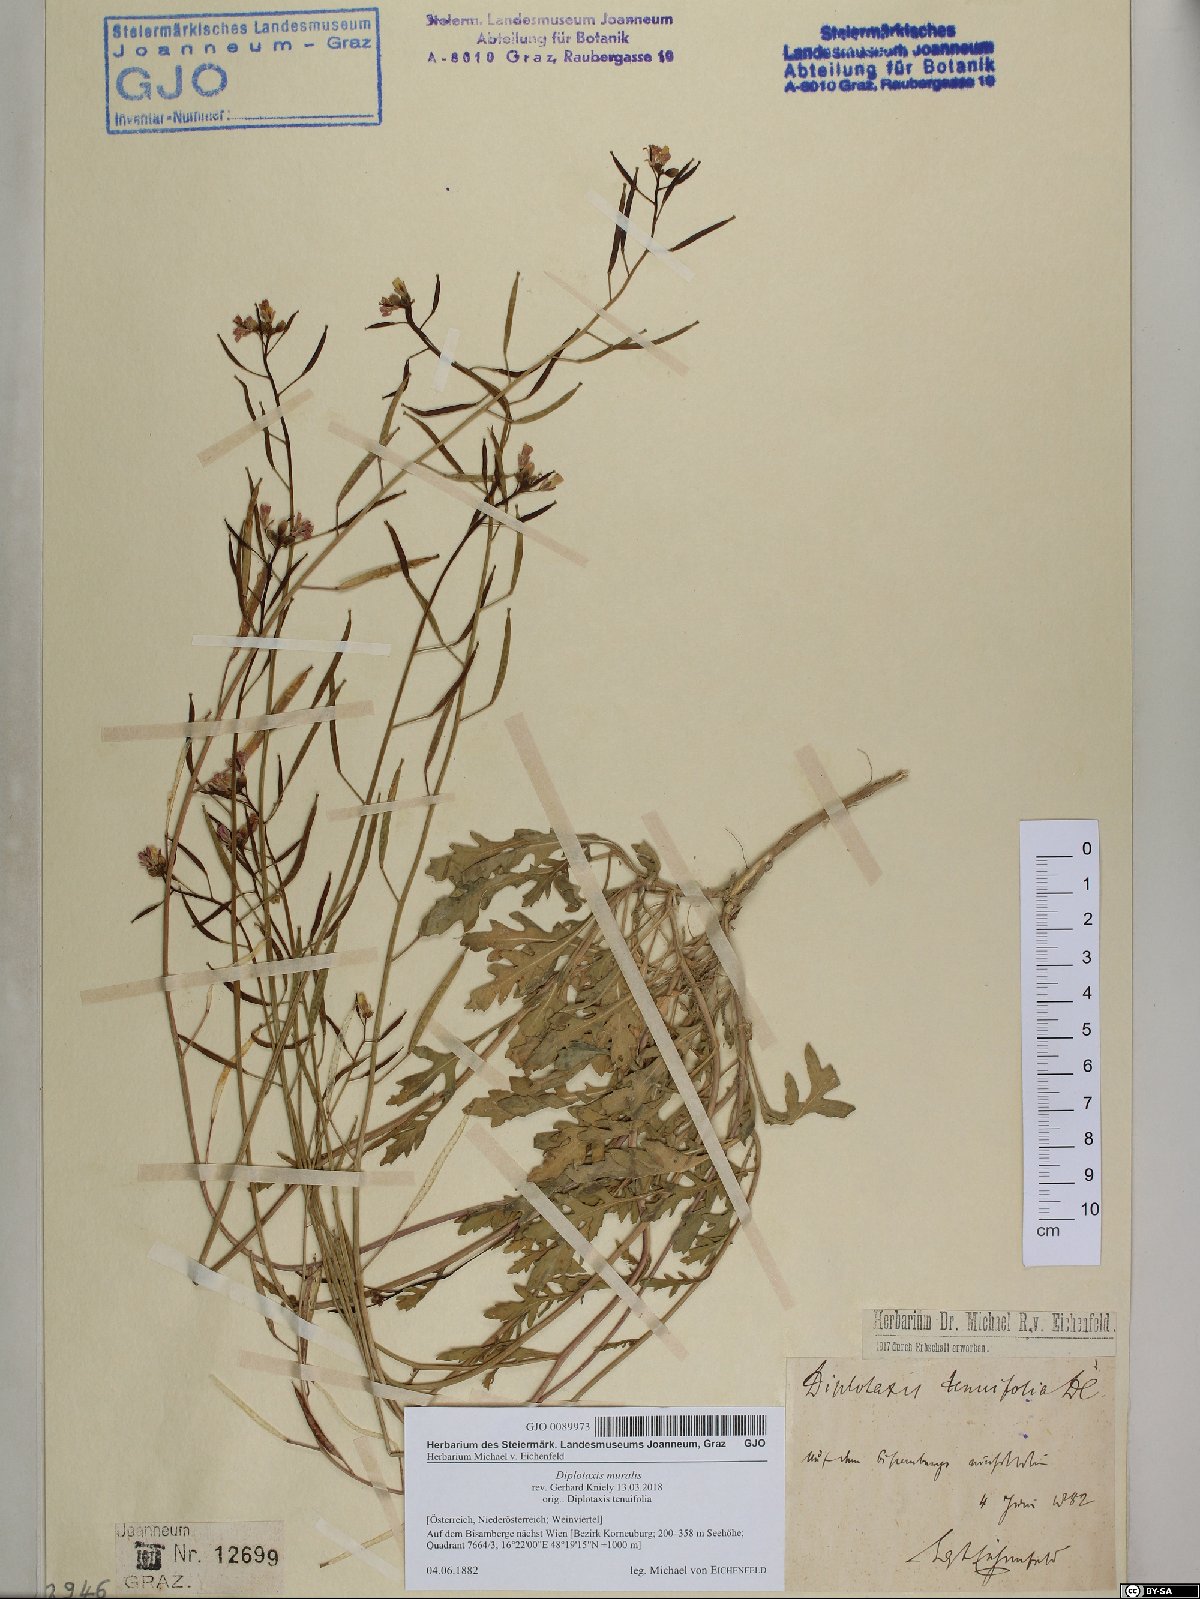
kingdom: Plantae
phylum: Tracheophyta
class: Magnoliopsida
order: Brassicales
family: Brassicaceae
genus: Diplotaxis
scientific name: Diplotaxis muralis
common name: Annual wall-rocket
